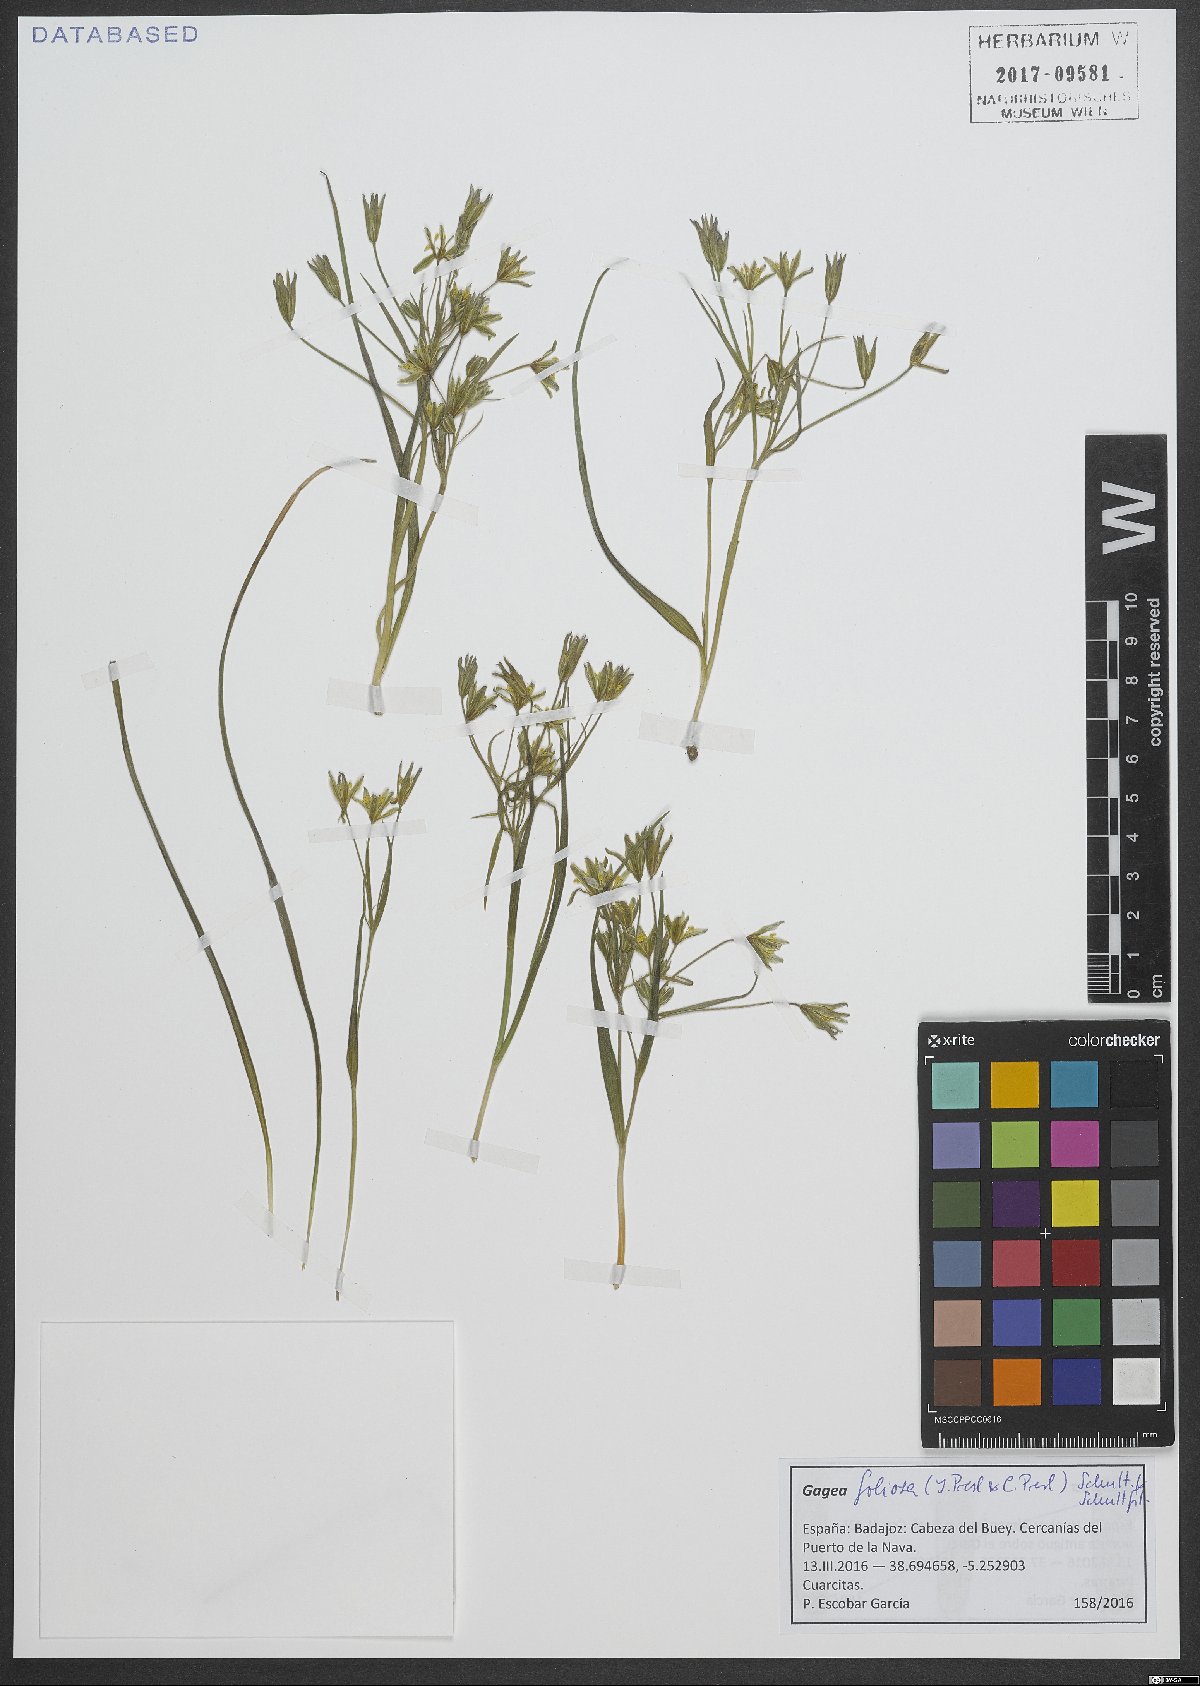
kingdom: Plantae
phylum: Tracheophyta
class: Liliopsida
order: Liliales
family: Liliaceae
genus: Gagea
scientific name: Gagea foliosa
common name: Leafy gagea
